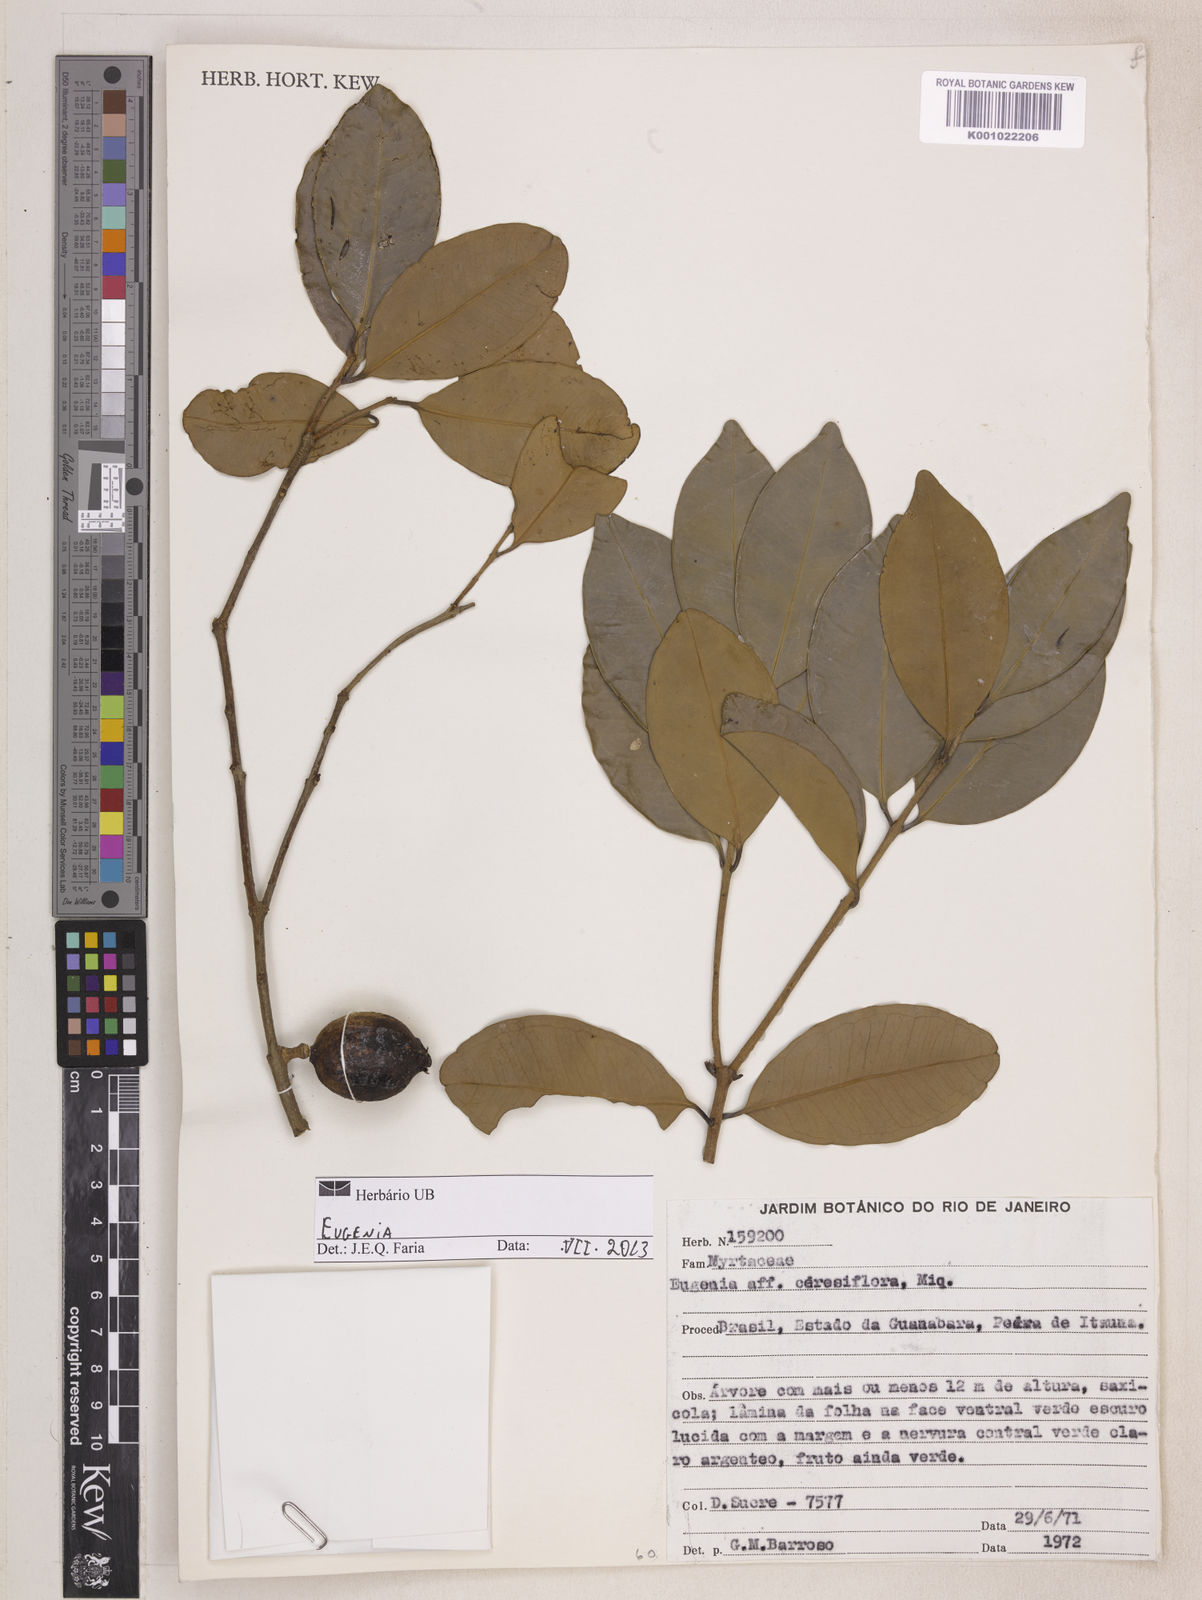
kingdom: Plantae
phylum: Tracheophyta
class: Magnoliopsida
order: Myrtales
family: Myrtaceae
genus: Eugenia
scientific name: Eugenia pruinosa
